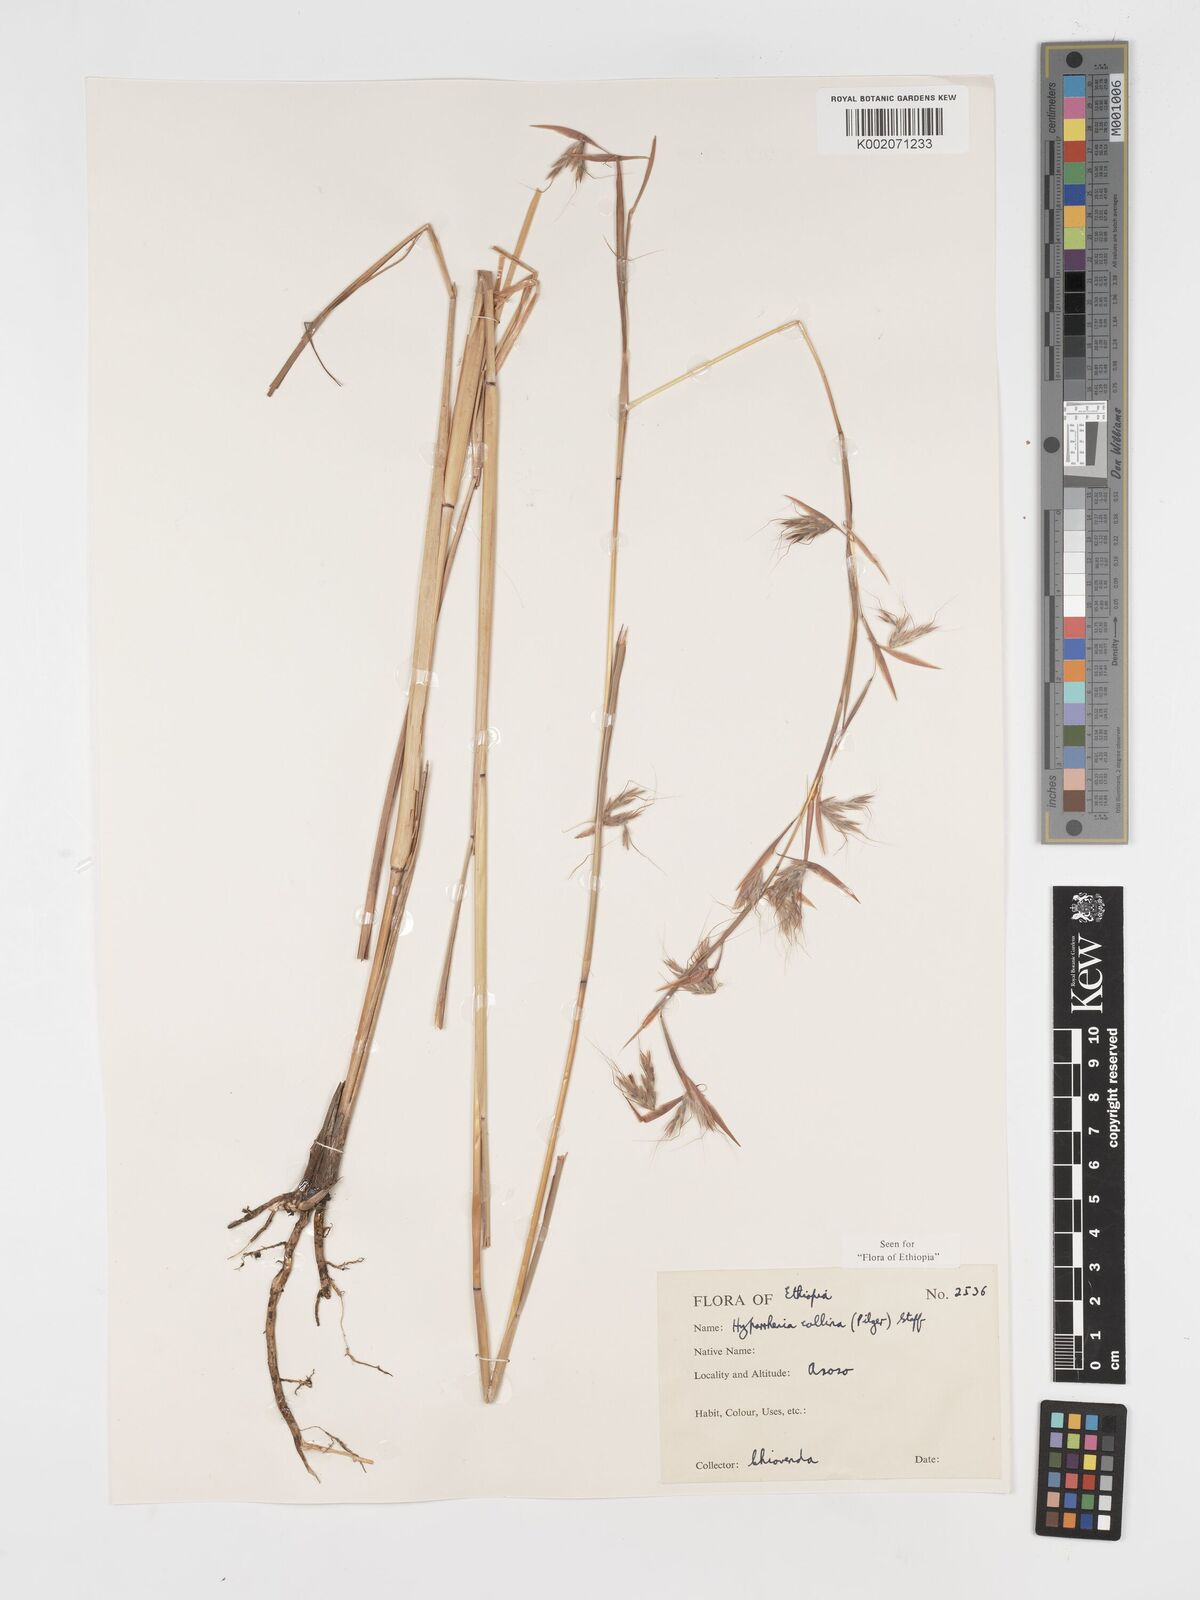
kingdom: Plantae
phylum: Tracheophyta
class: Liliopsida
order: Poales
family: Poaceae
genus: Hyparrhenia
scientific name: Hyparrhenia collina
